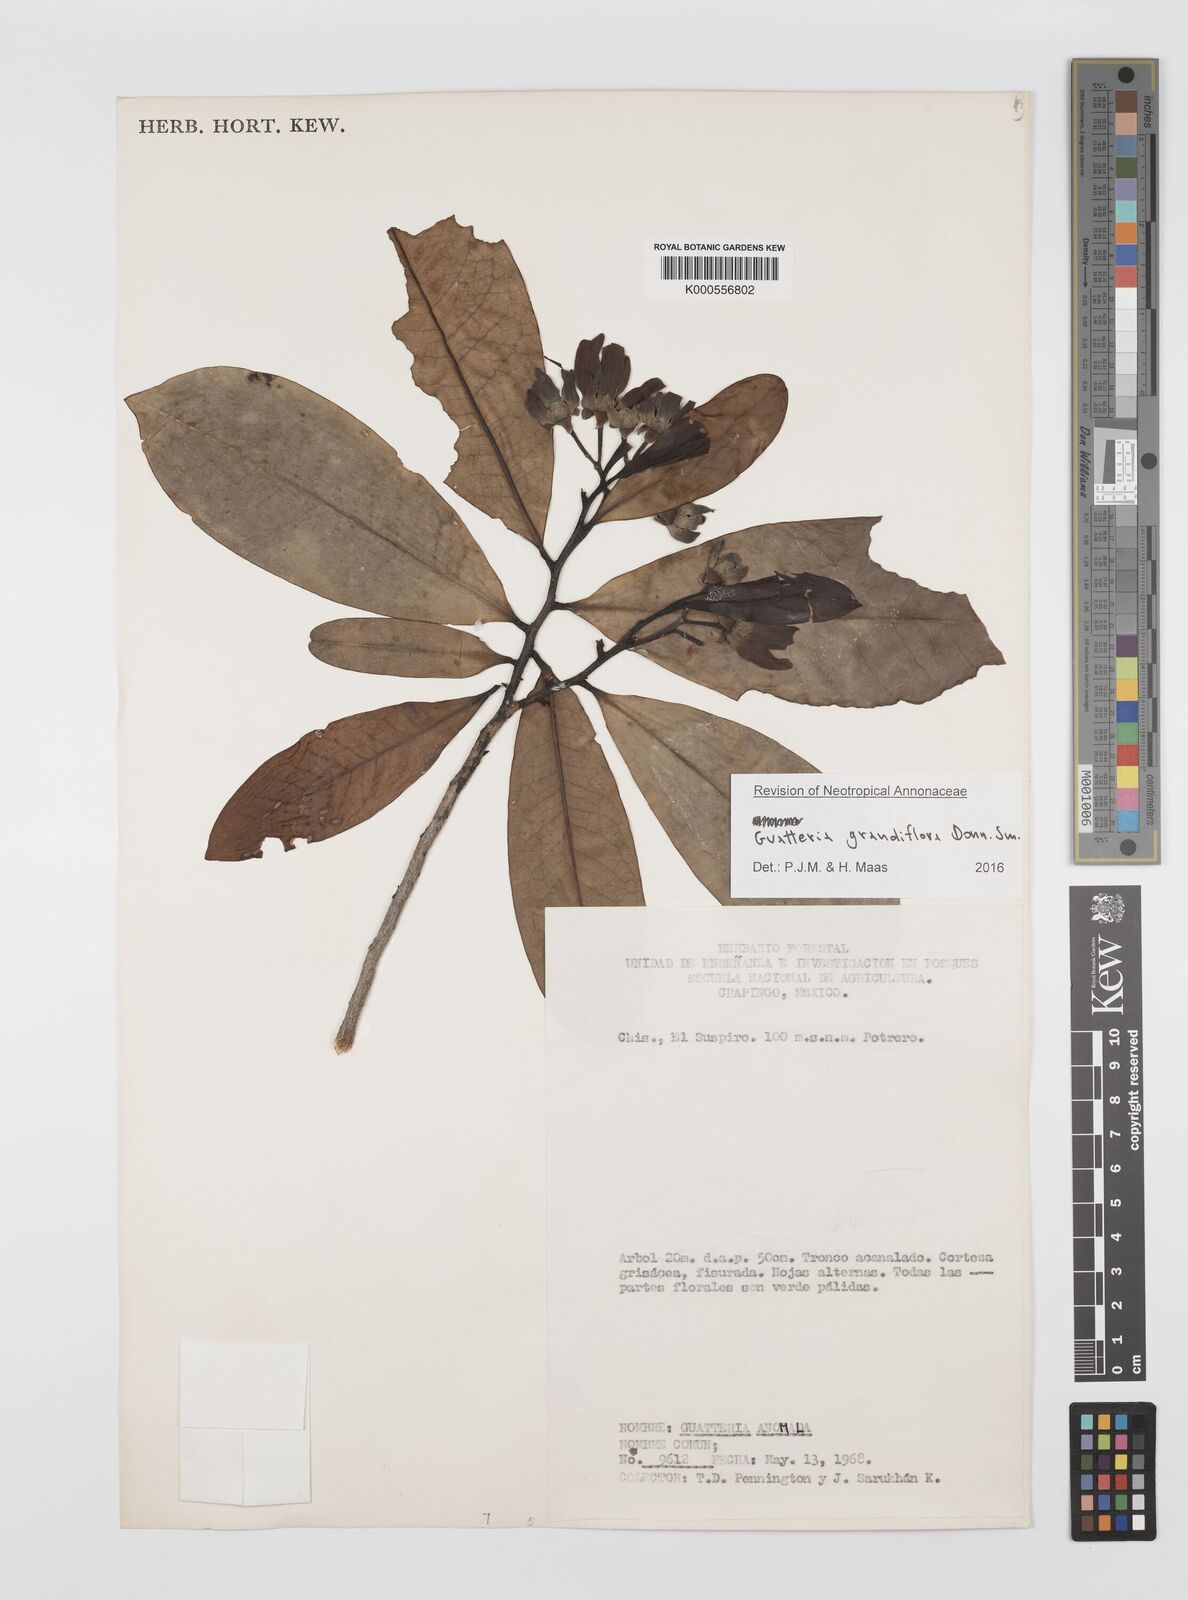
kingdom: Plantae
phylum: Tracheophyta
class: Magnoliopsida
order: Magnoliales
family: Annonaceae
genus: Guatteria
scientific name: Guatteria grandiflora
